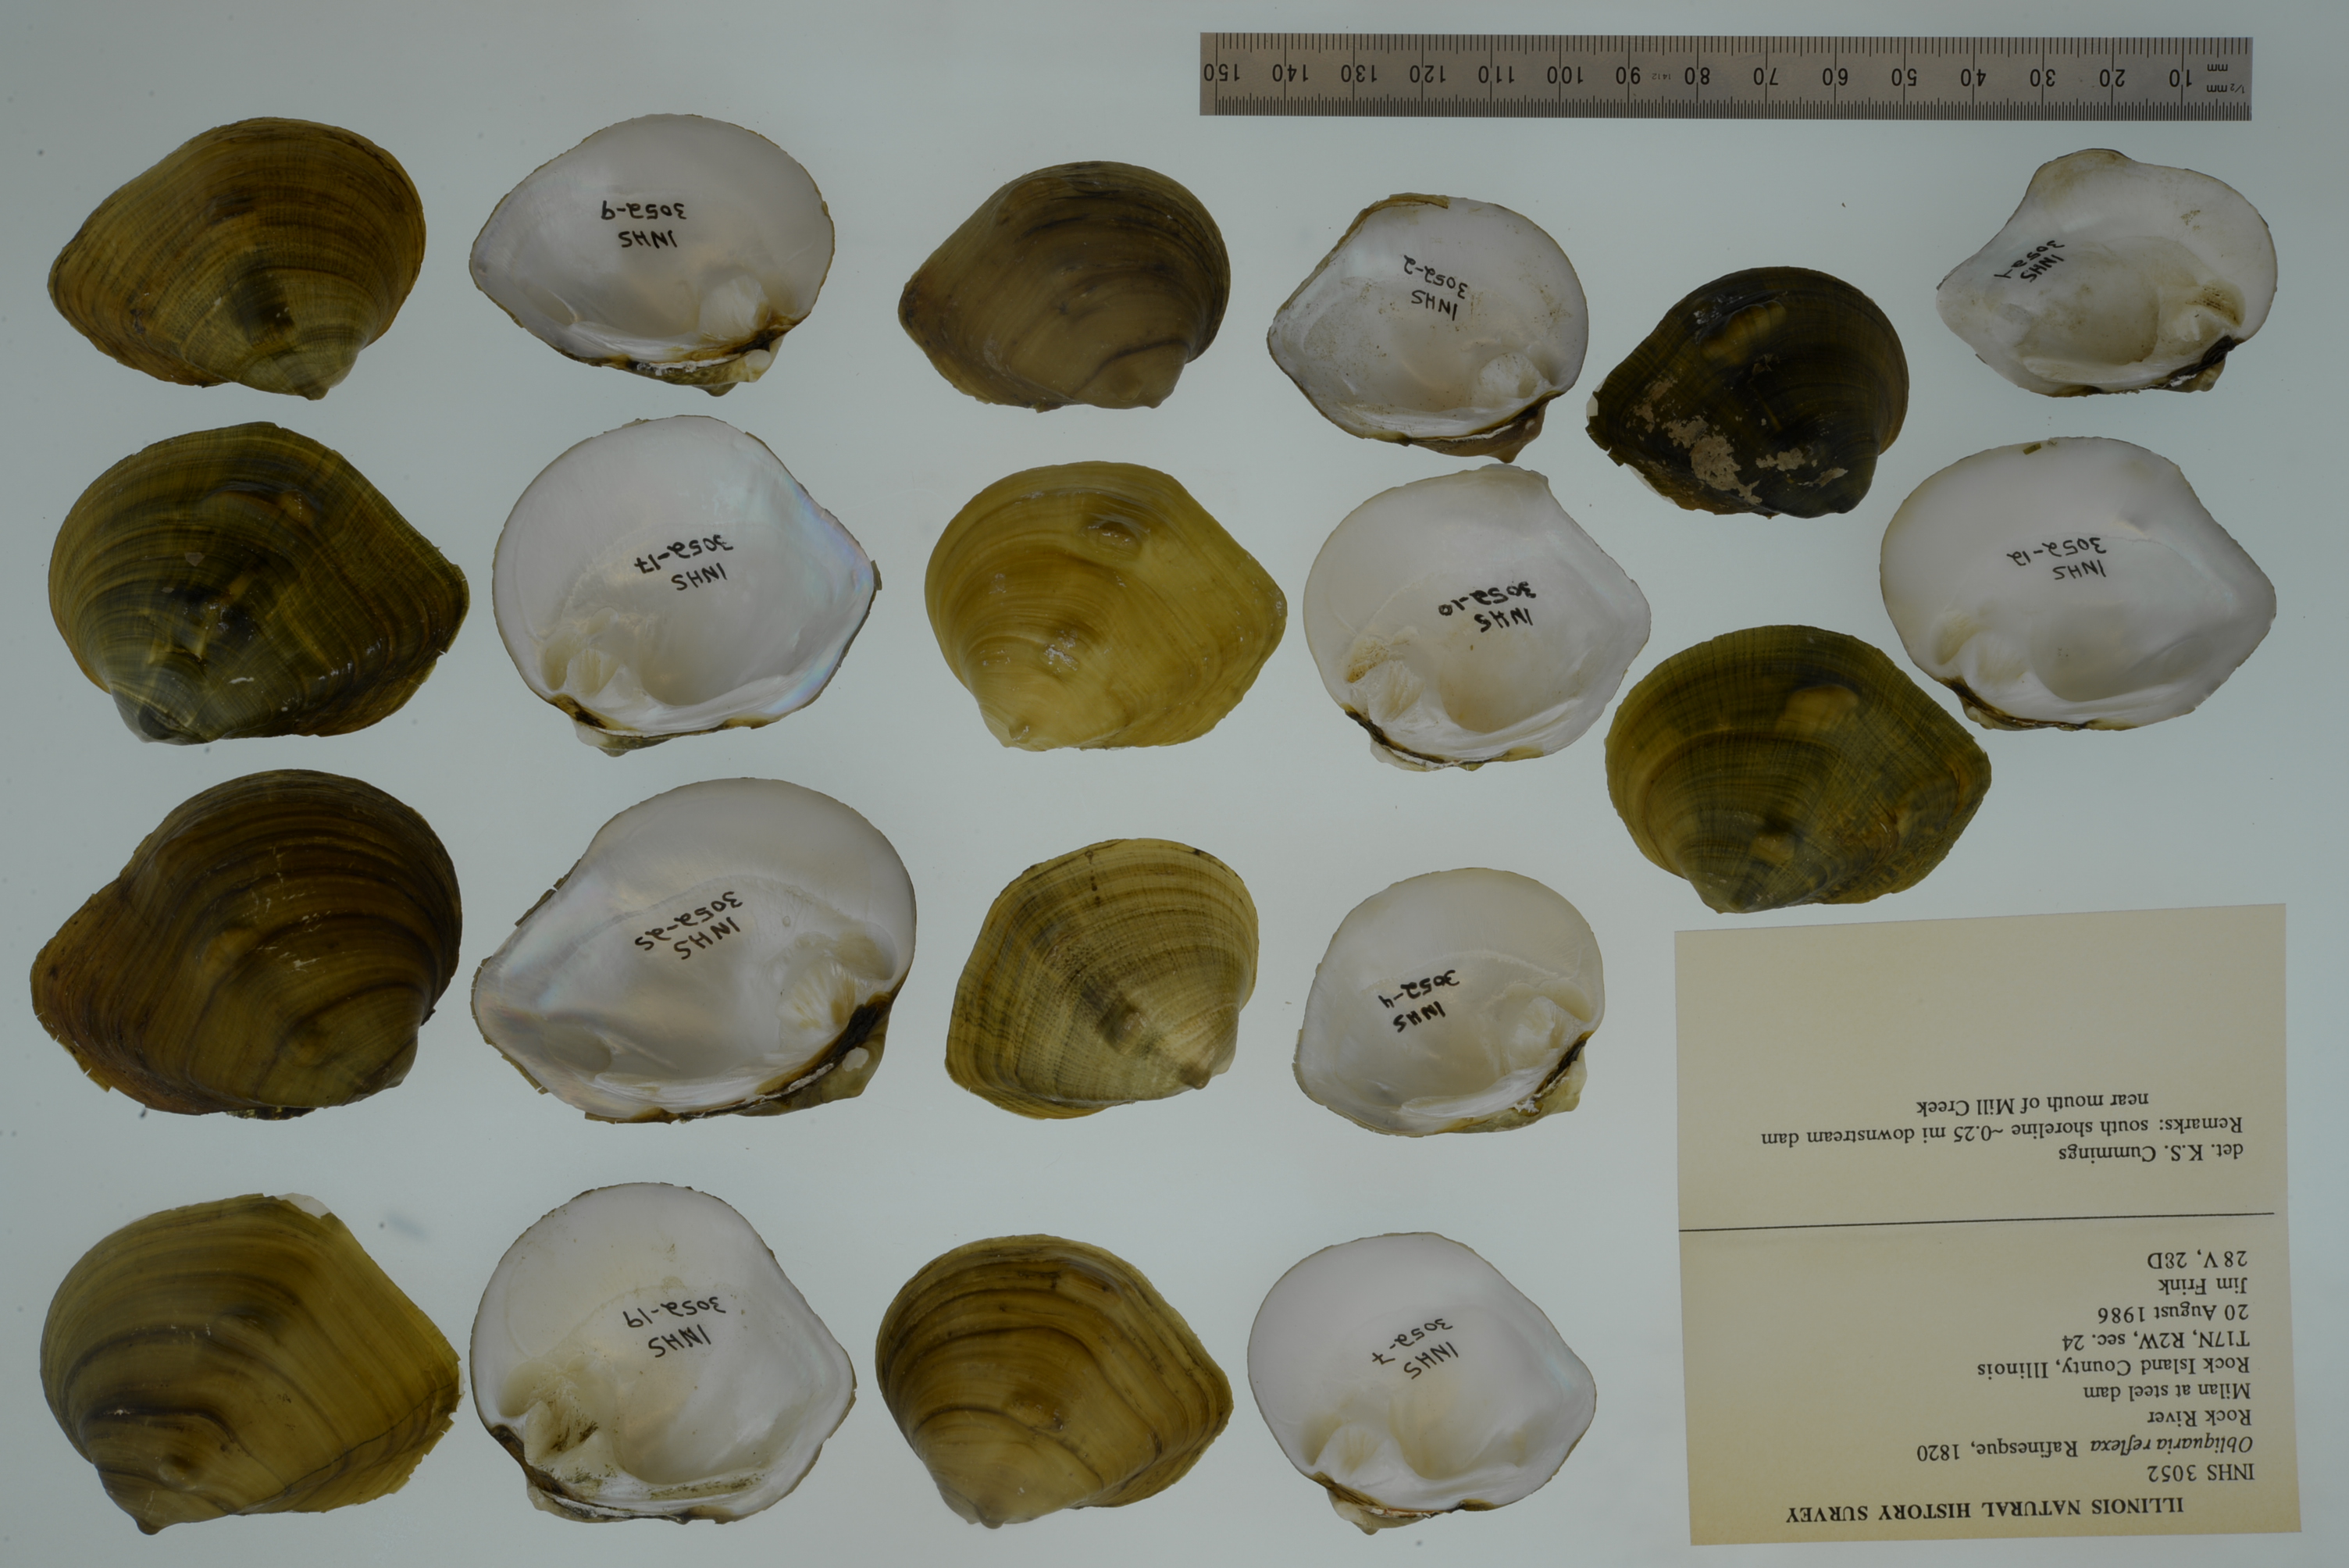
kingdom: Animalia
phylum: Mollusca
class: Bivalvia
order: Unionida
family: Unionidae
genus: Obliquaria
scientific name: Obliquaria reflexa
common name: Threehorn wartyback
